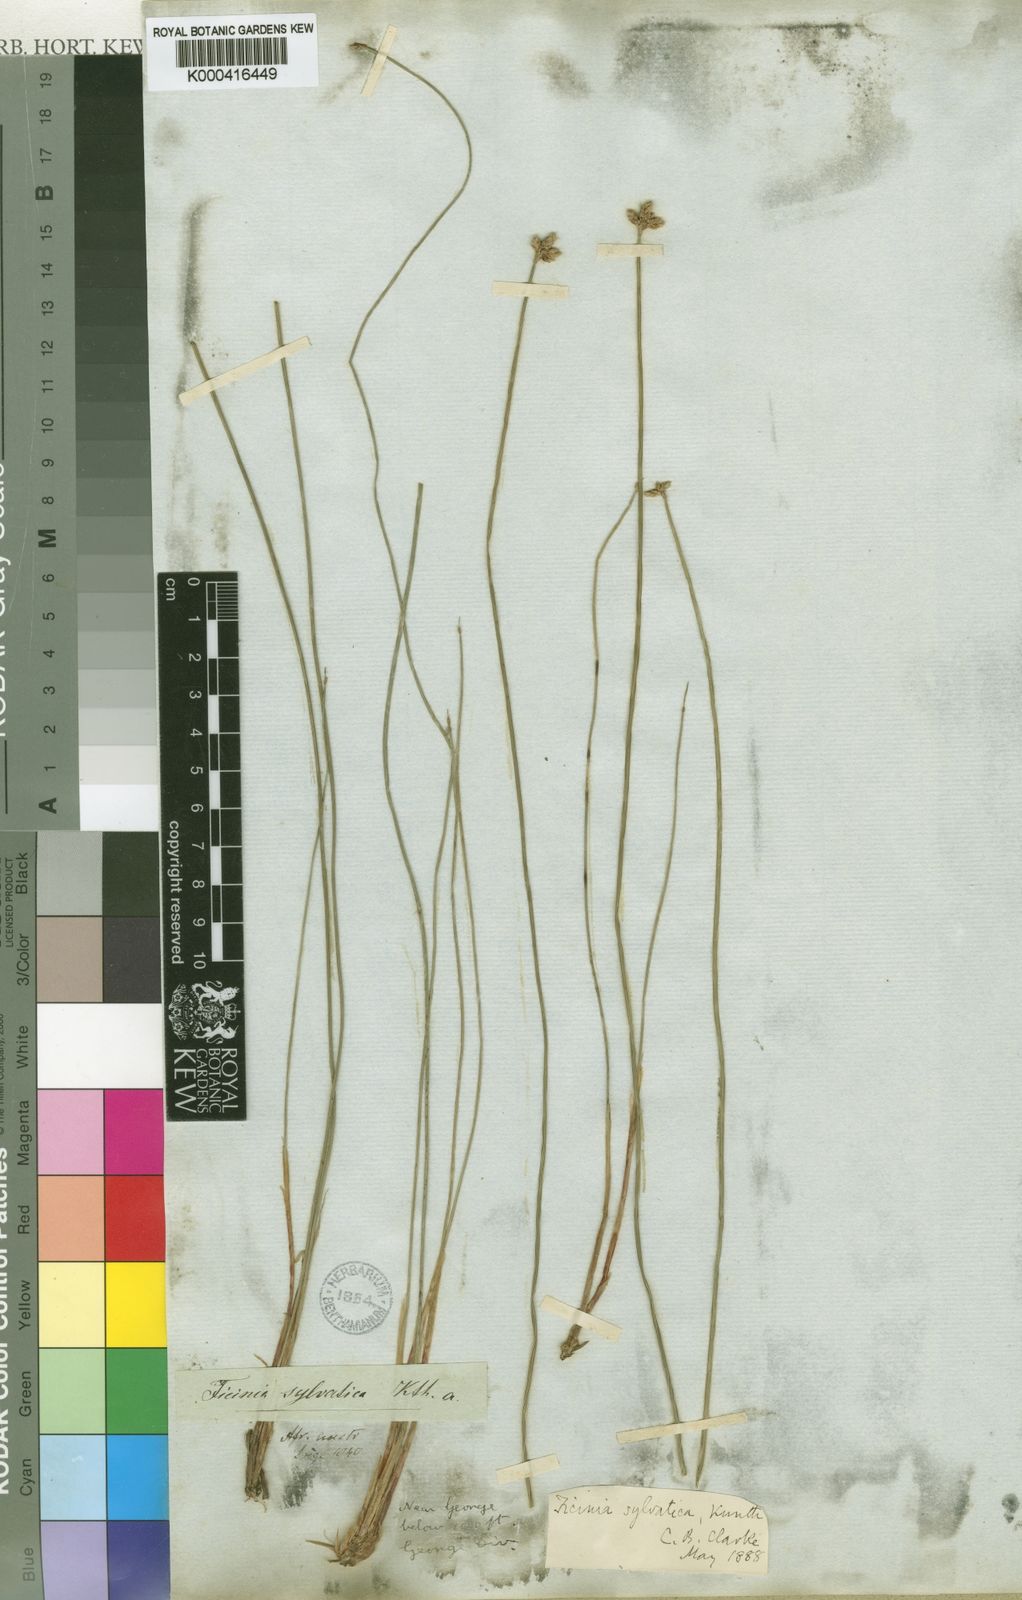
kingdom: Plantae
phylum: Tracheophyta
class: Liliopsida
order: Poales
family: Cyperaceae
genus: Ficinia
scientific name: Ficinia sylvatica
